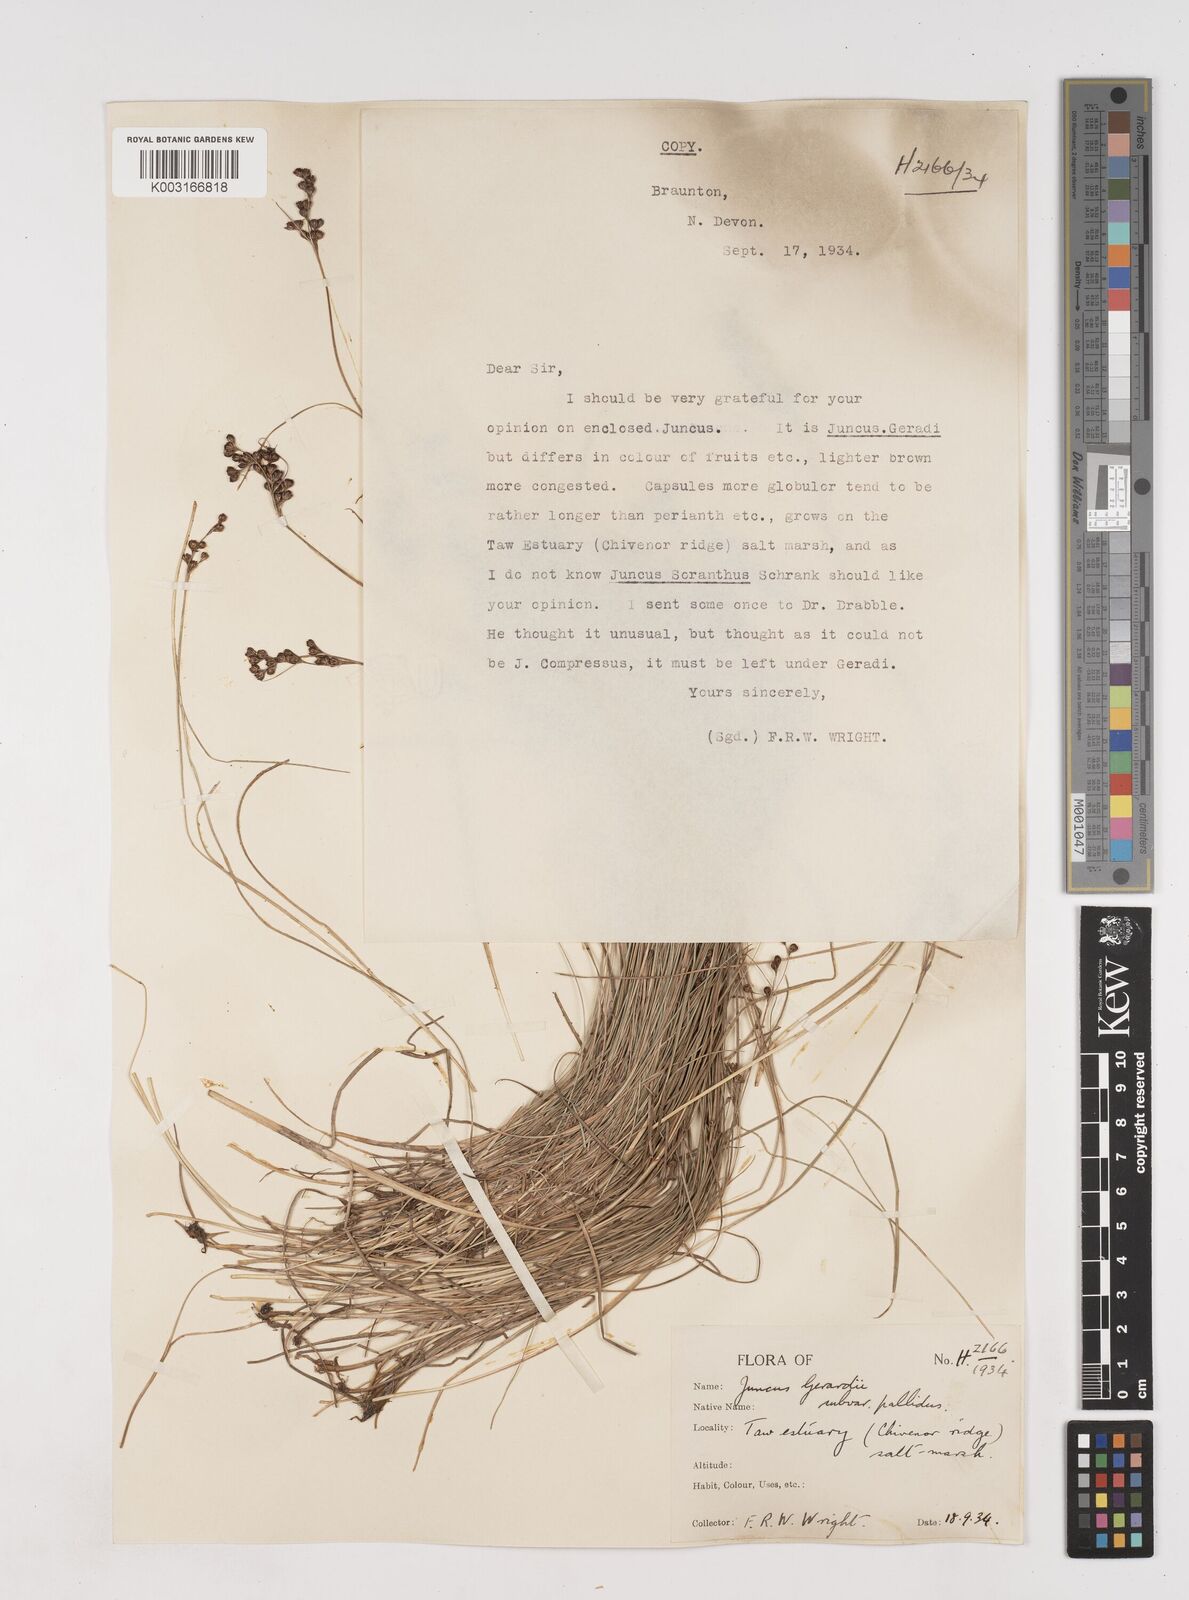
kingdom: Plantae
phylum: Tracheophyta
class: Liliopsida
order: Poales
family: Juncaceae
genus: Juncus
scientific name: Juncus gerardi
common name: Saltmarsh rush
